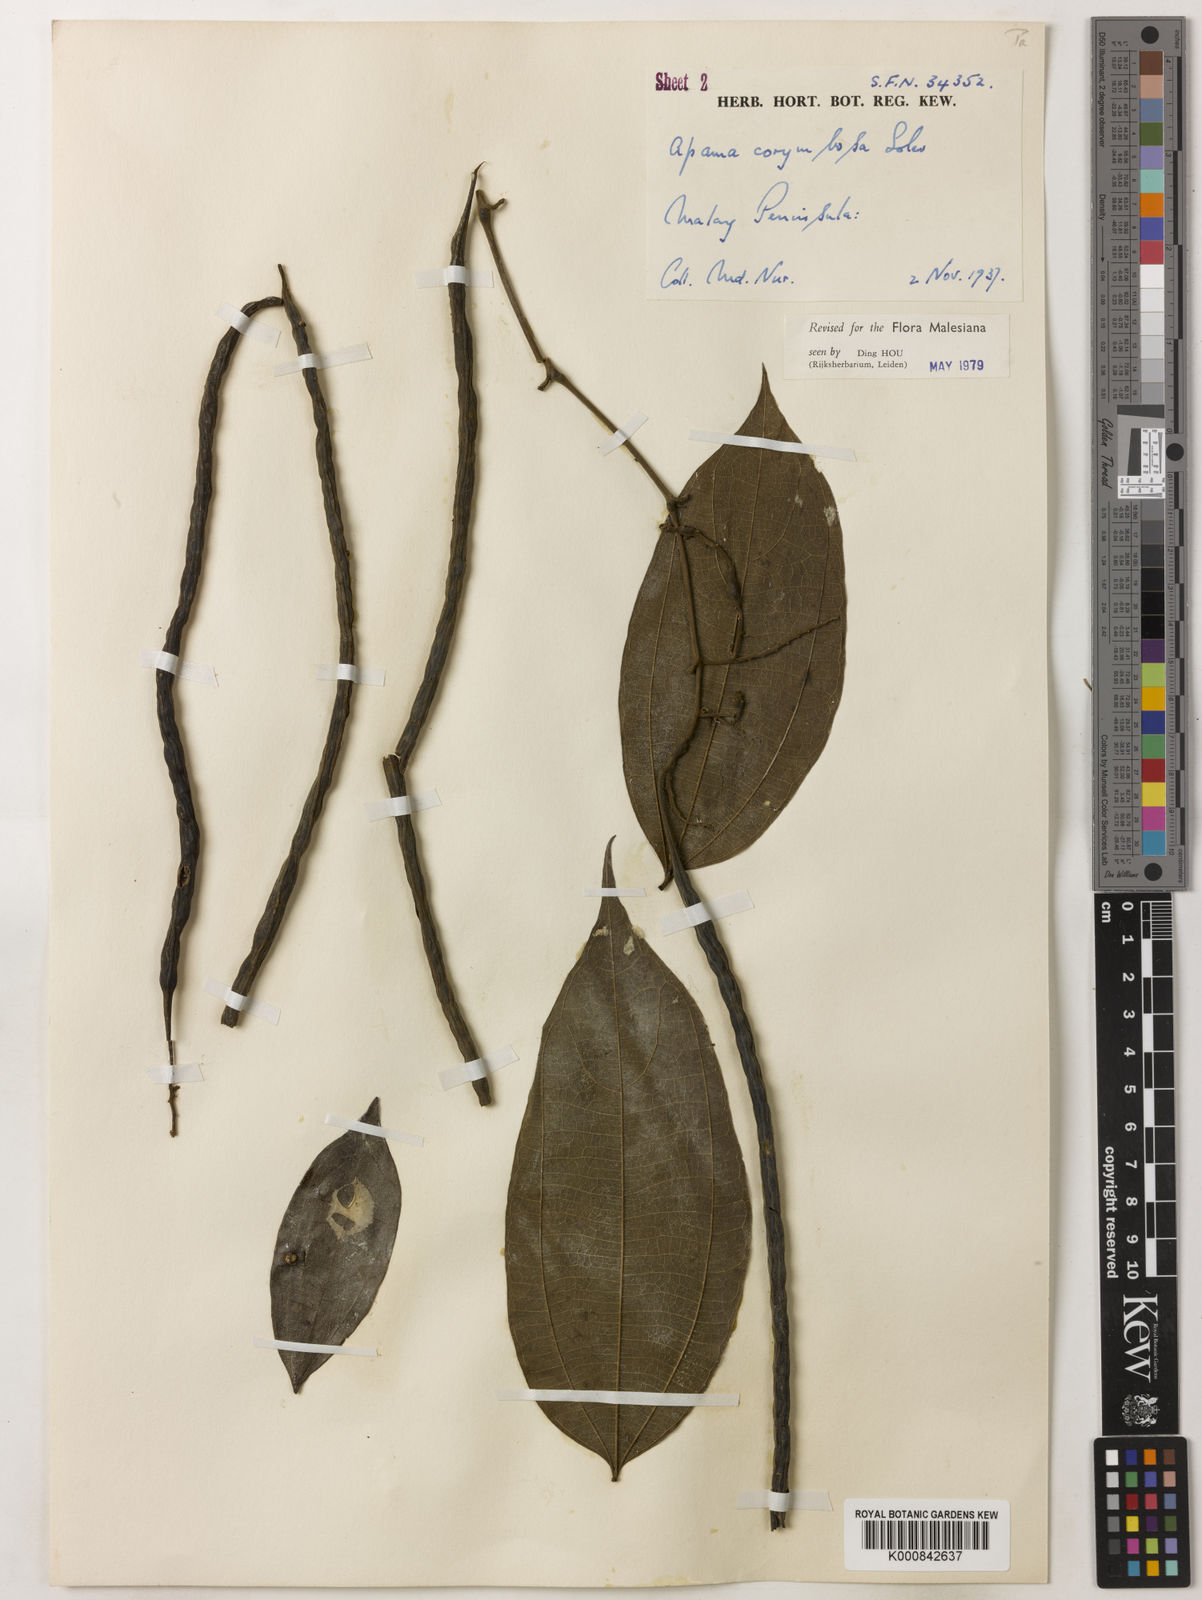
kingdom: Plantae
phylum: Tracheophyta
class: Magnoliopsida
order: Piperales
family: Aristolochiaceae
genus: Thottea
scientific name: Thottea piperiformis
